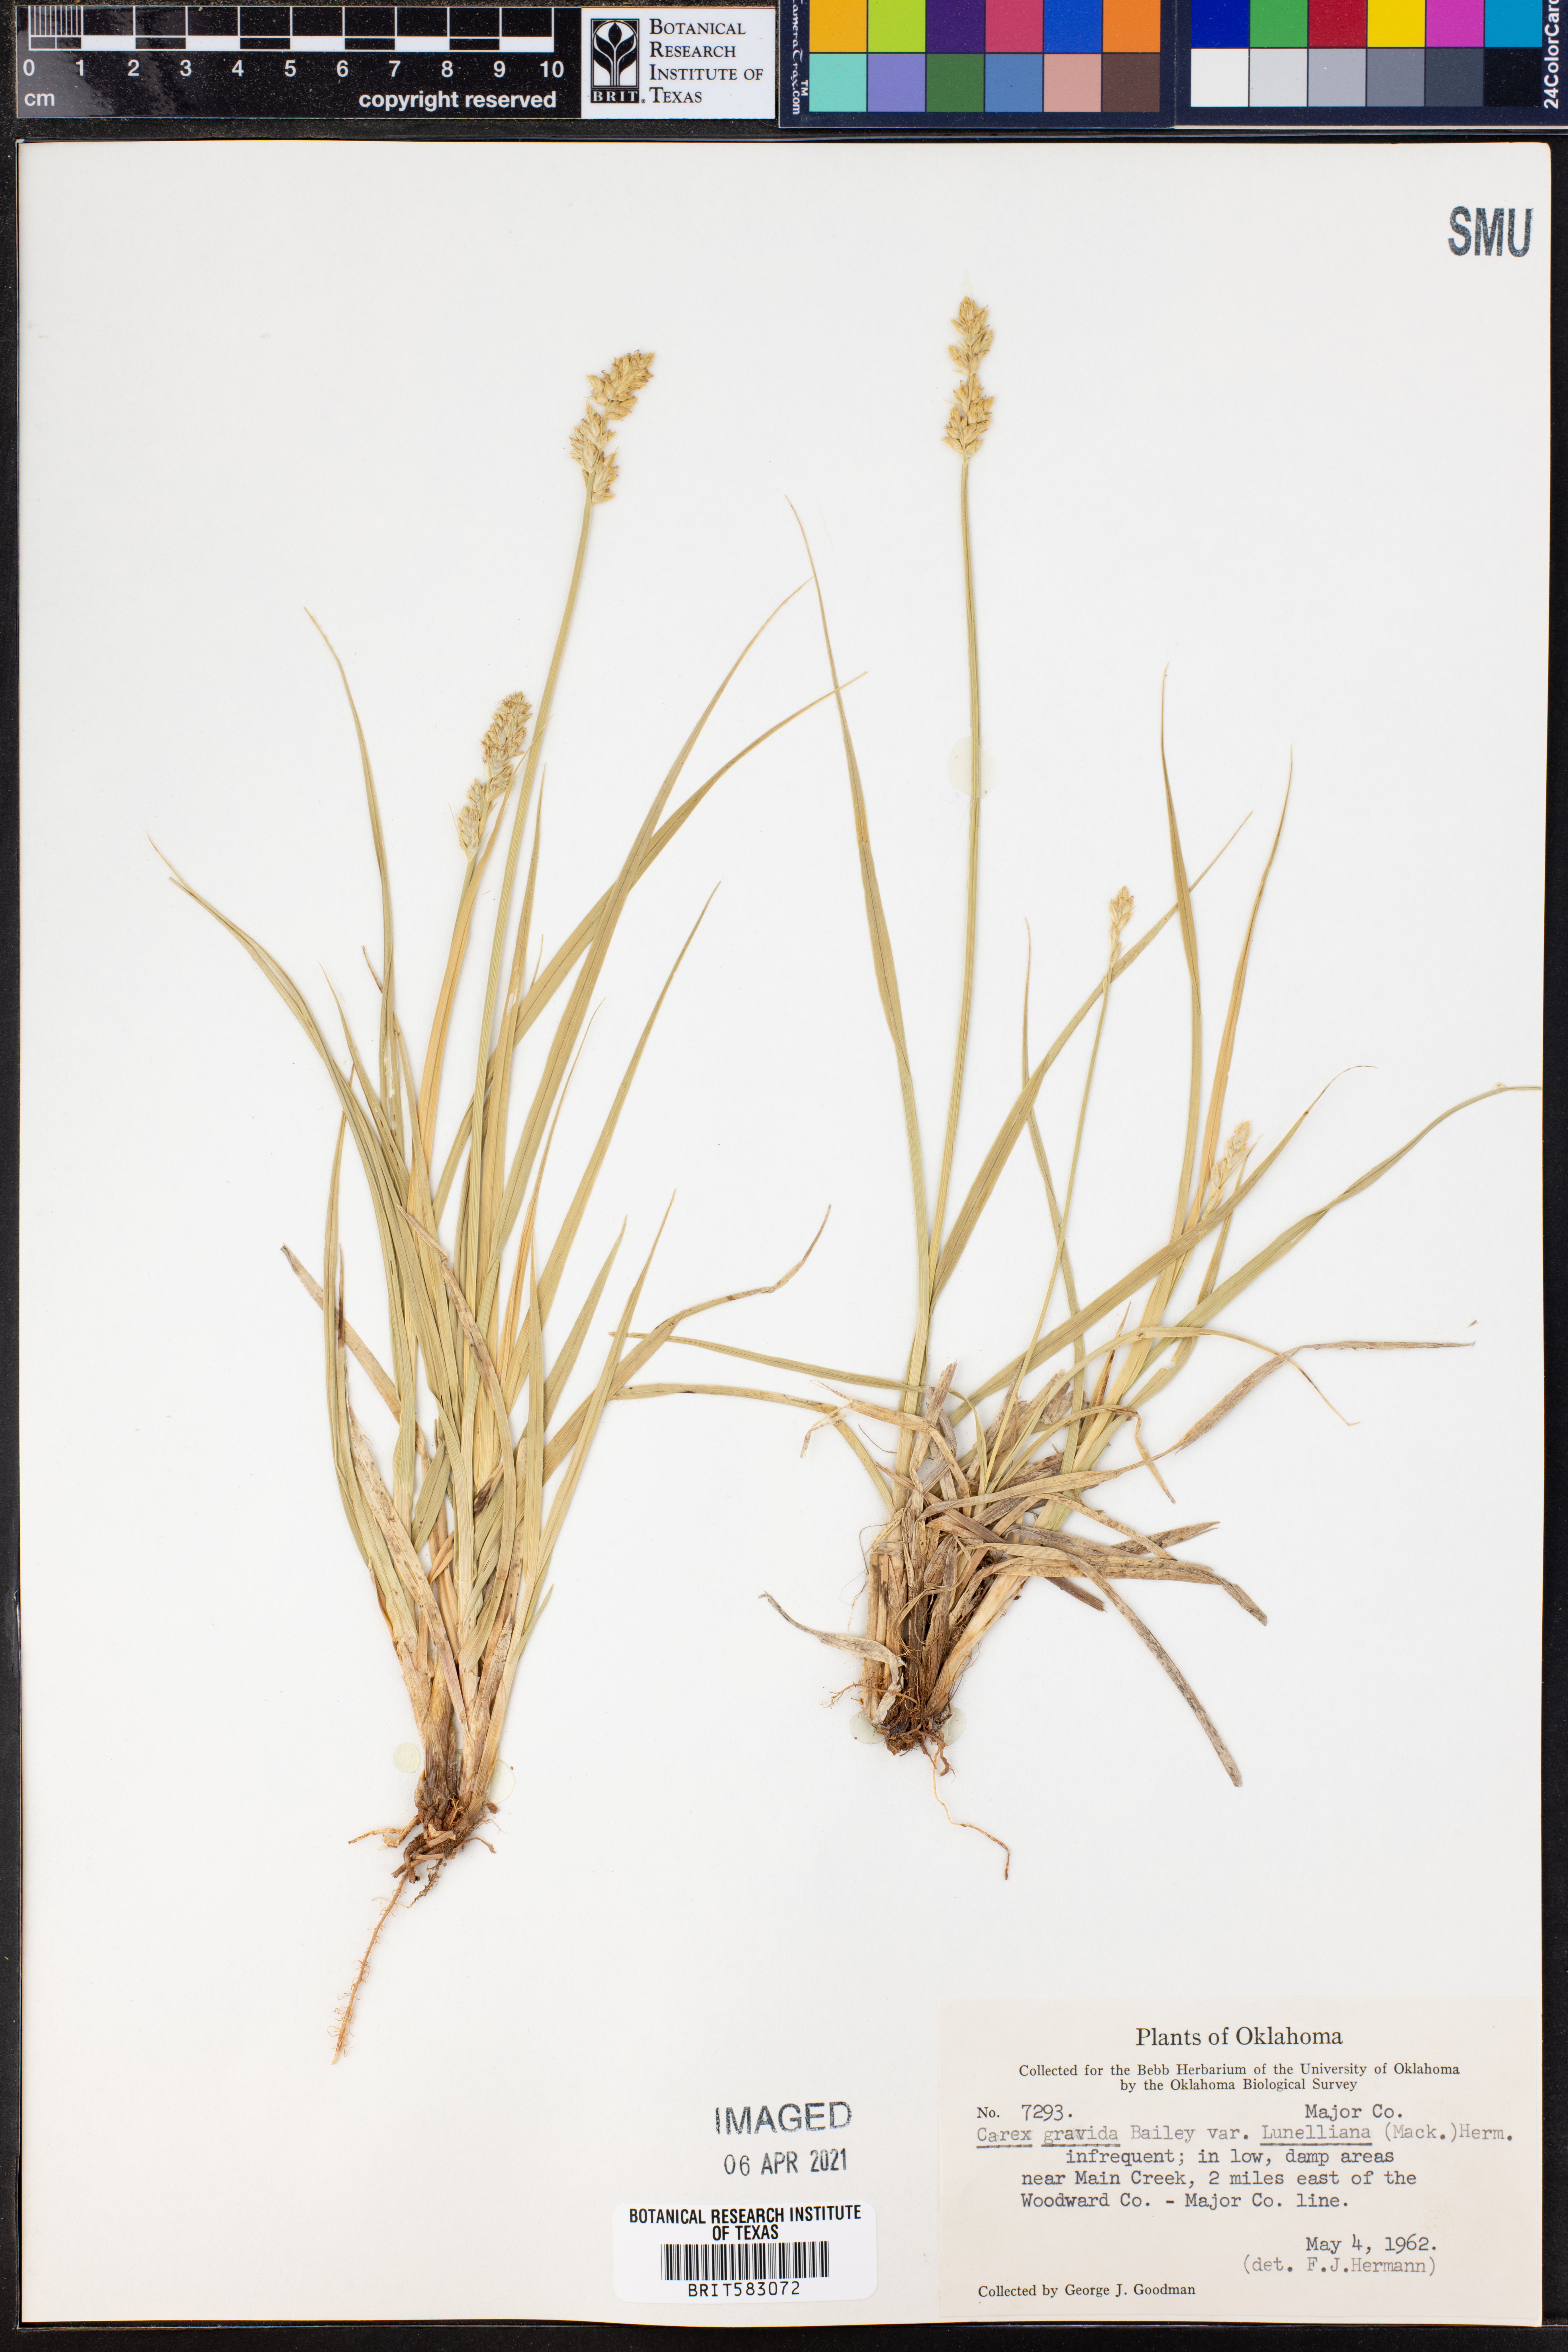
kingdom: Plantae
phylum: Tracheophyta
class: Liliopsida
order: Poales
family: Cyperaceae
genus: Carex
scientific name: Carex gravida
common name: Heavy sedge
